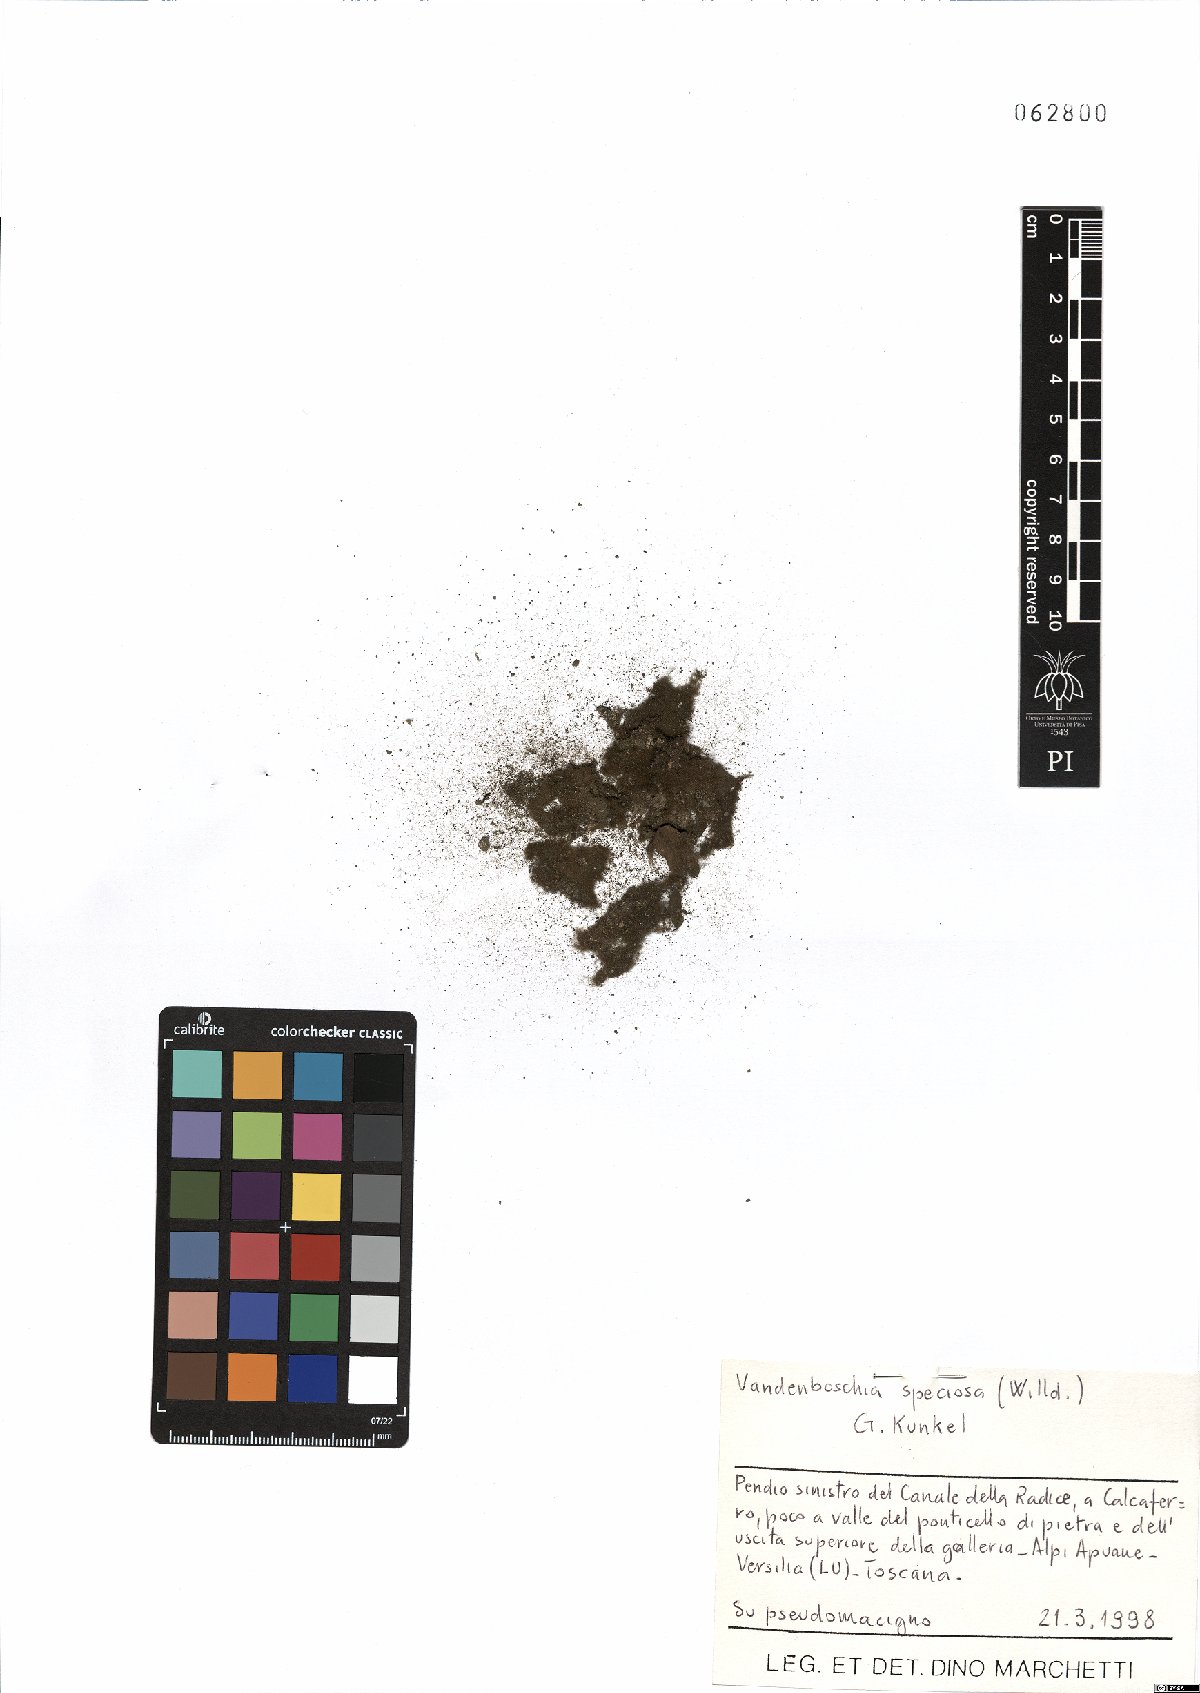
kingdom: Plantae
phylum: Tracheophyta
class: Polypodiopsida
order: Hymenophyllales
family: Hymenophyllaceae
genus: Vandenboschia
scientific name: Vandenboschia speciosa
